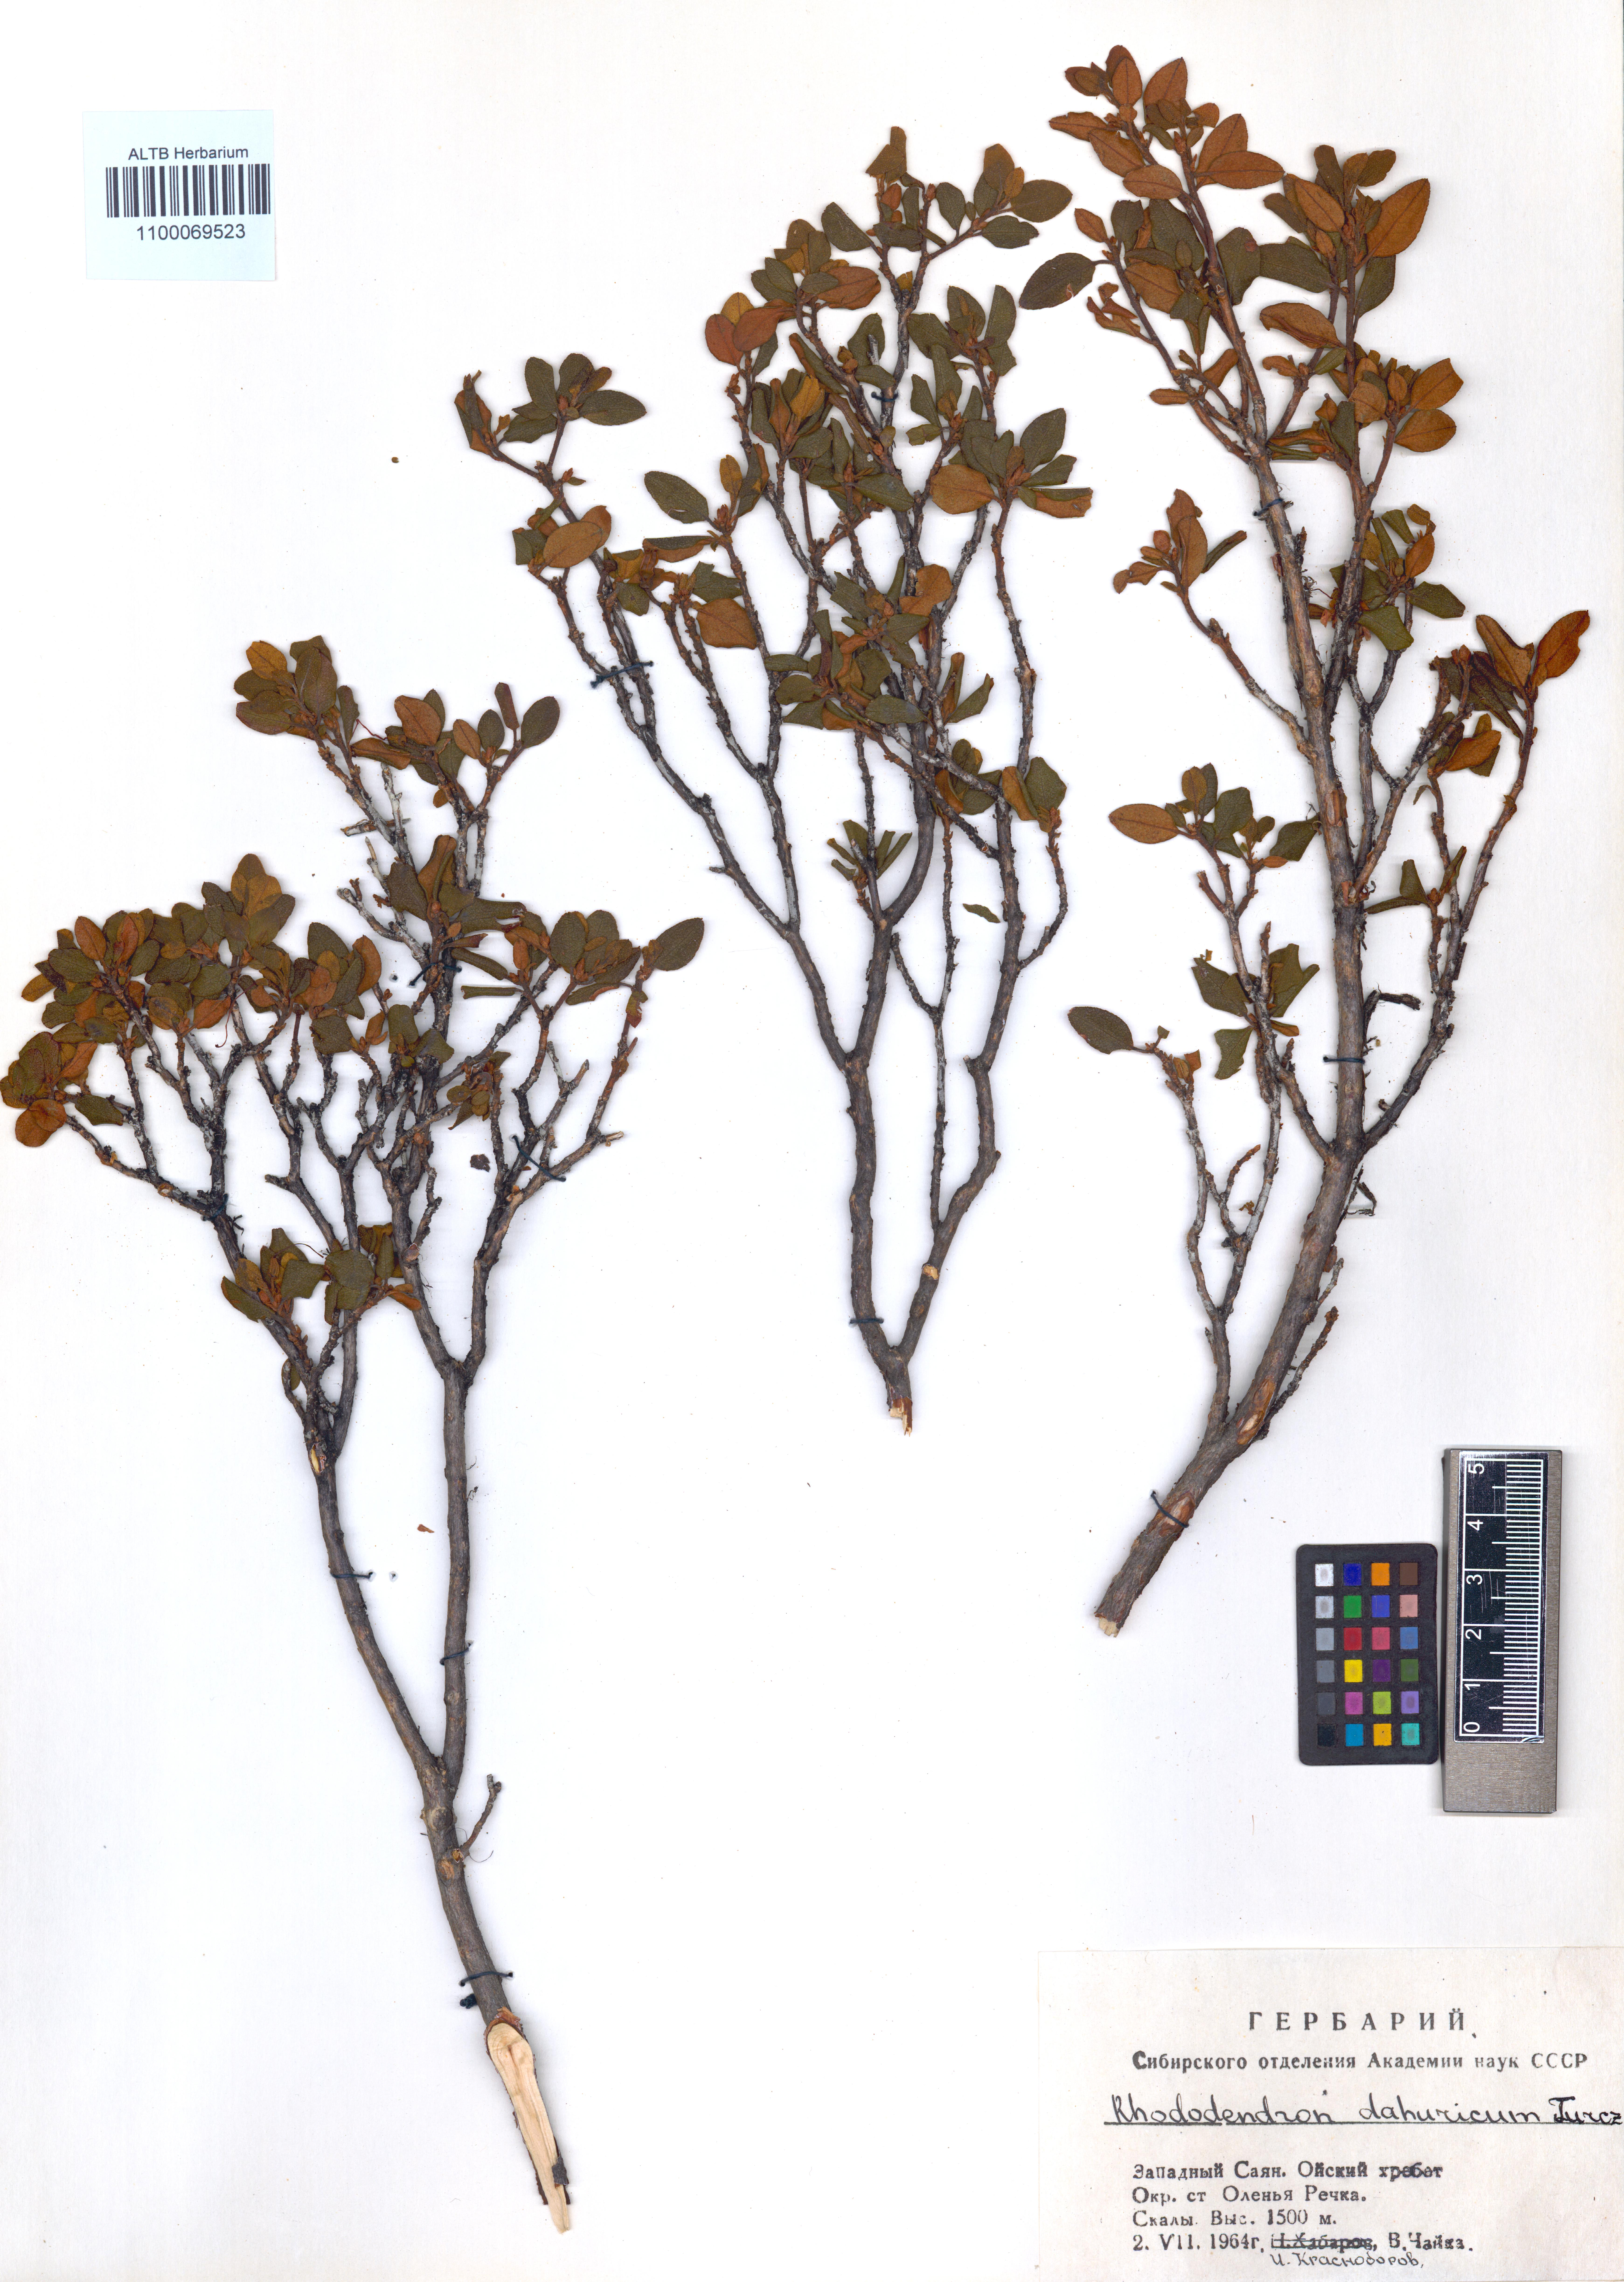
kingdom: Plantae
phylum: Tracheophyta
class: Magnoliopsida
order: Ericales
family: Ericaceae
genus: Rhododendron
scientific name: Rhododendron dauricum
